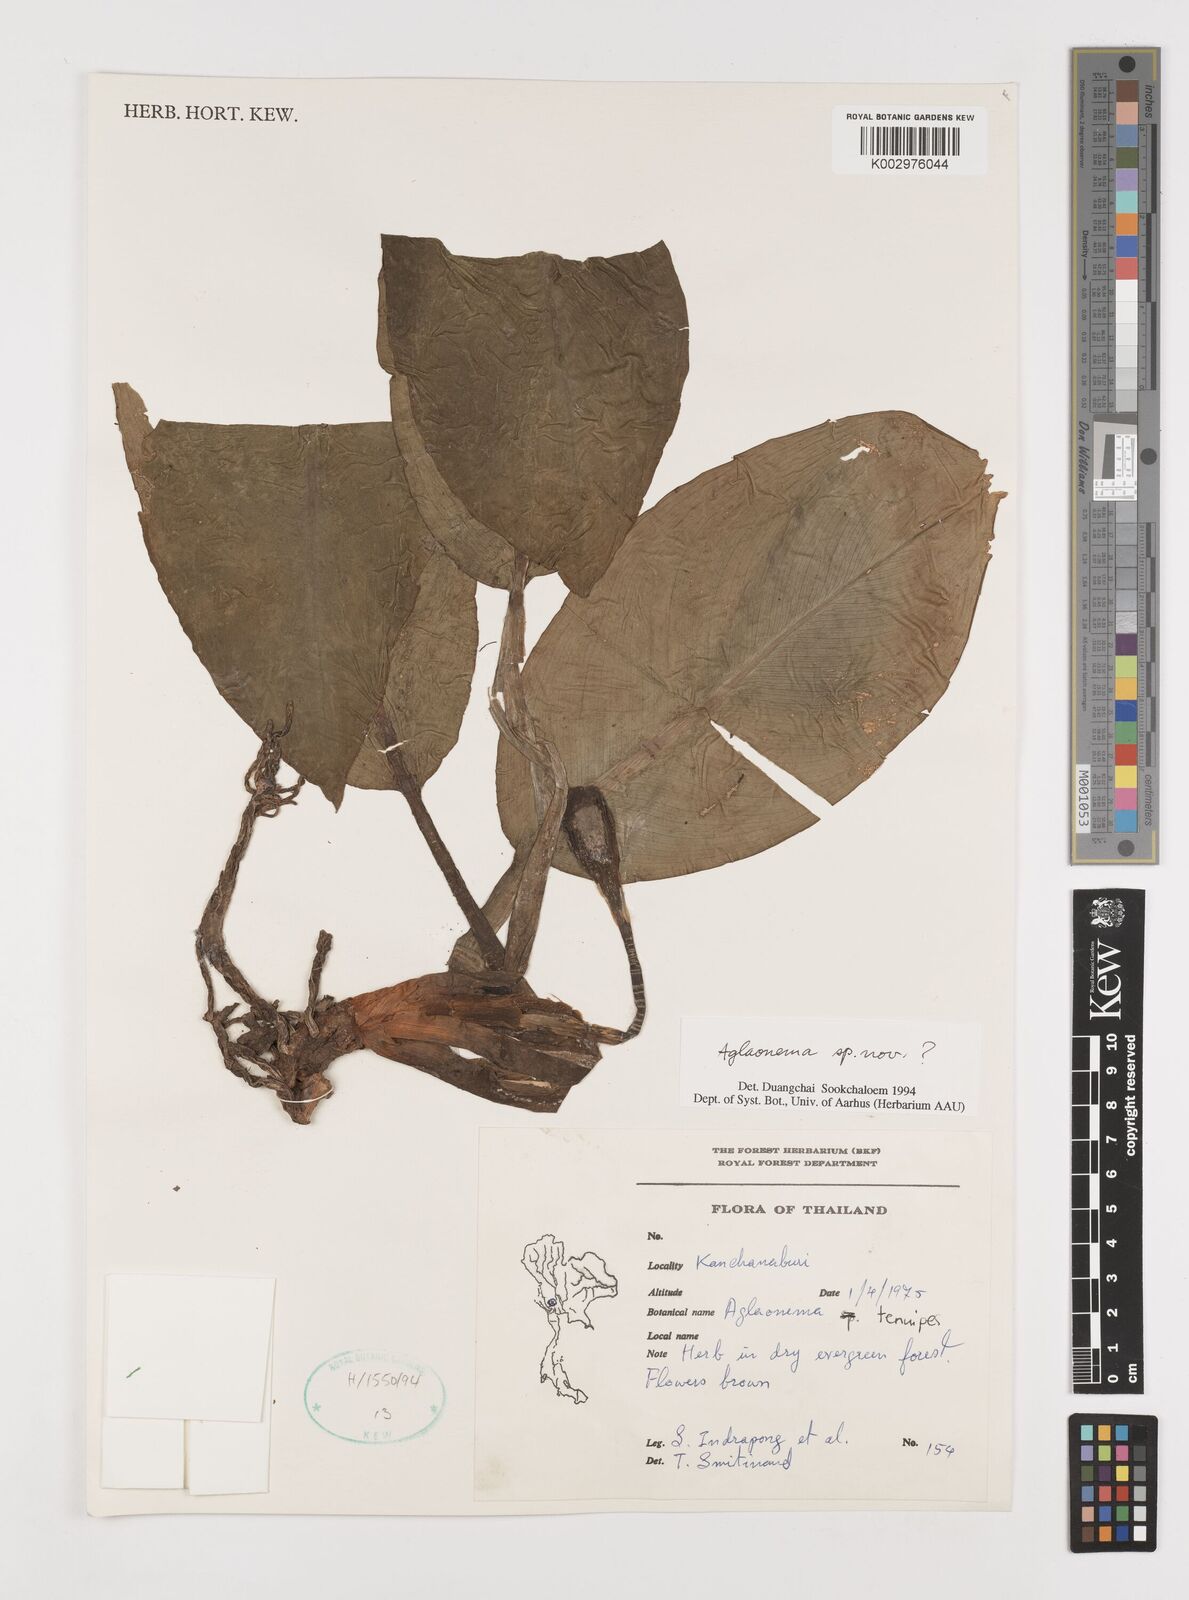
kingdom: Plantae
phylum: Tracheophyta
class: Liliopsida
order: Alismatales
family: Araceae
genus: Aglaonema
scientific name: Aglaonema simplex
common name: Malayan-sword
